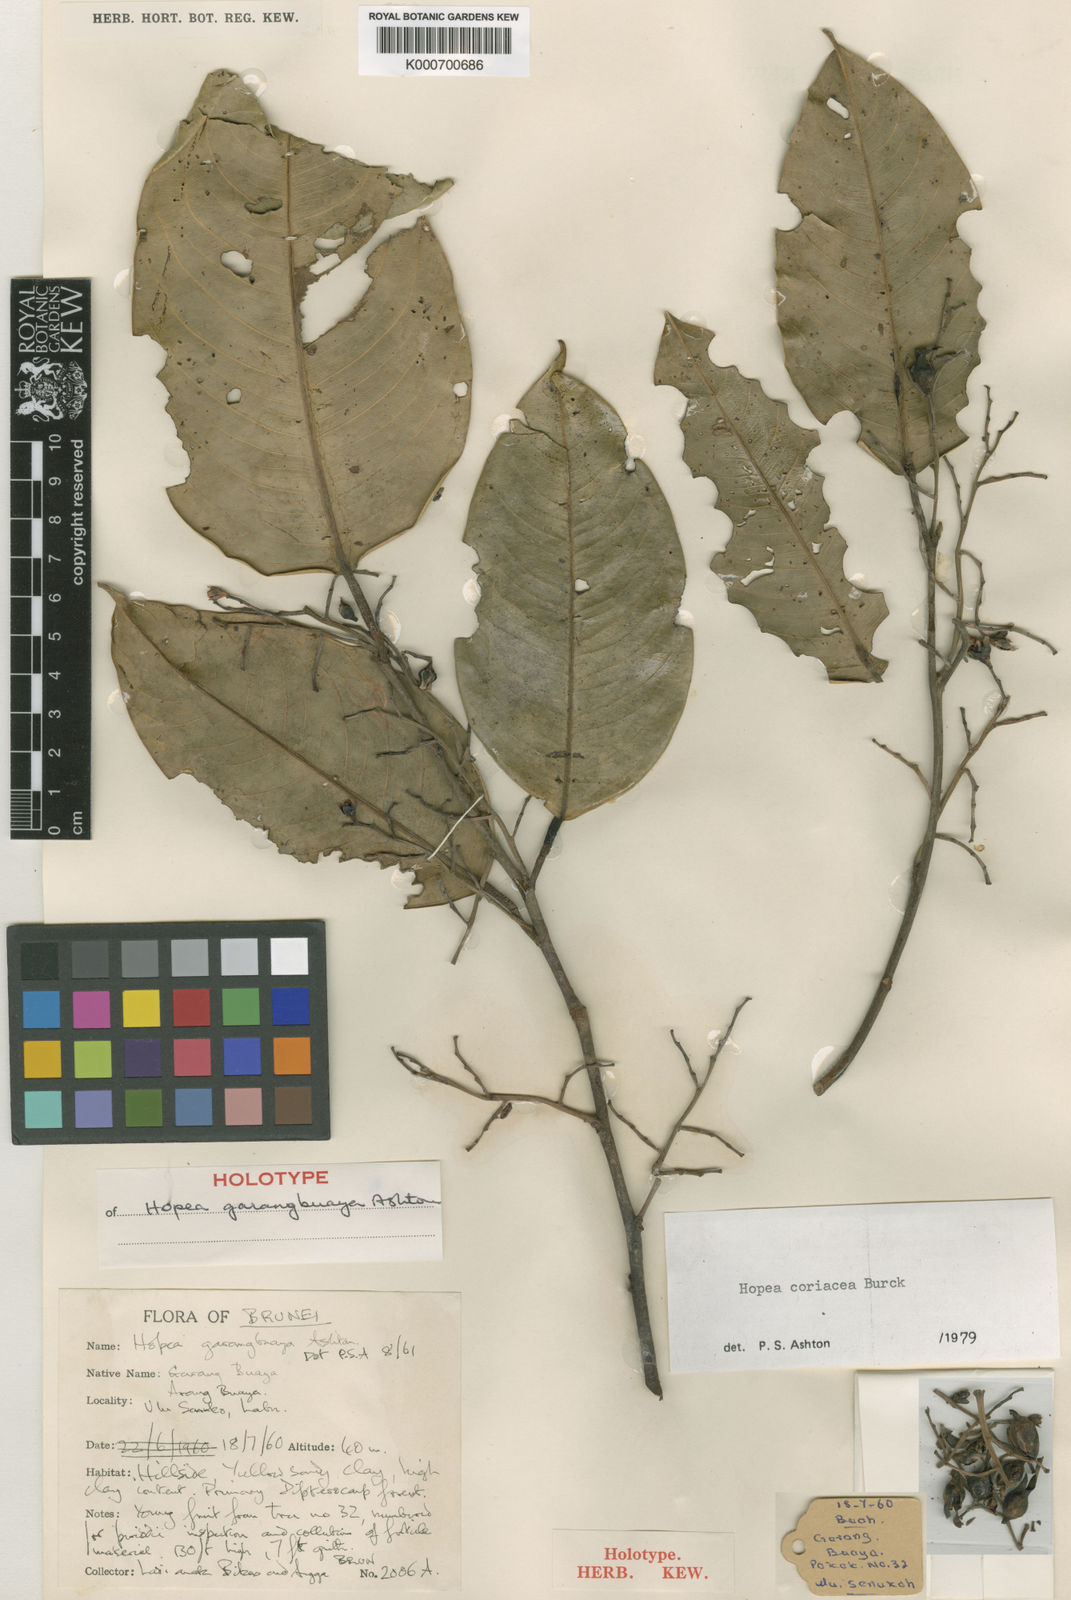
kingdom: Plantae
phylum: Tracheophyta
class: Magnoliopsida
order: Malvales
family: Dipterocarpaceae
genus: Hopea
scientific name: Hopea coriacea
